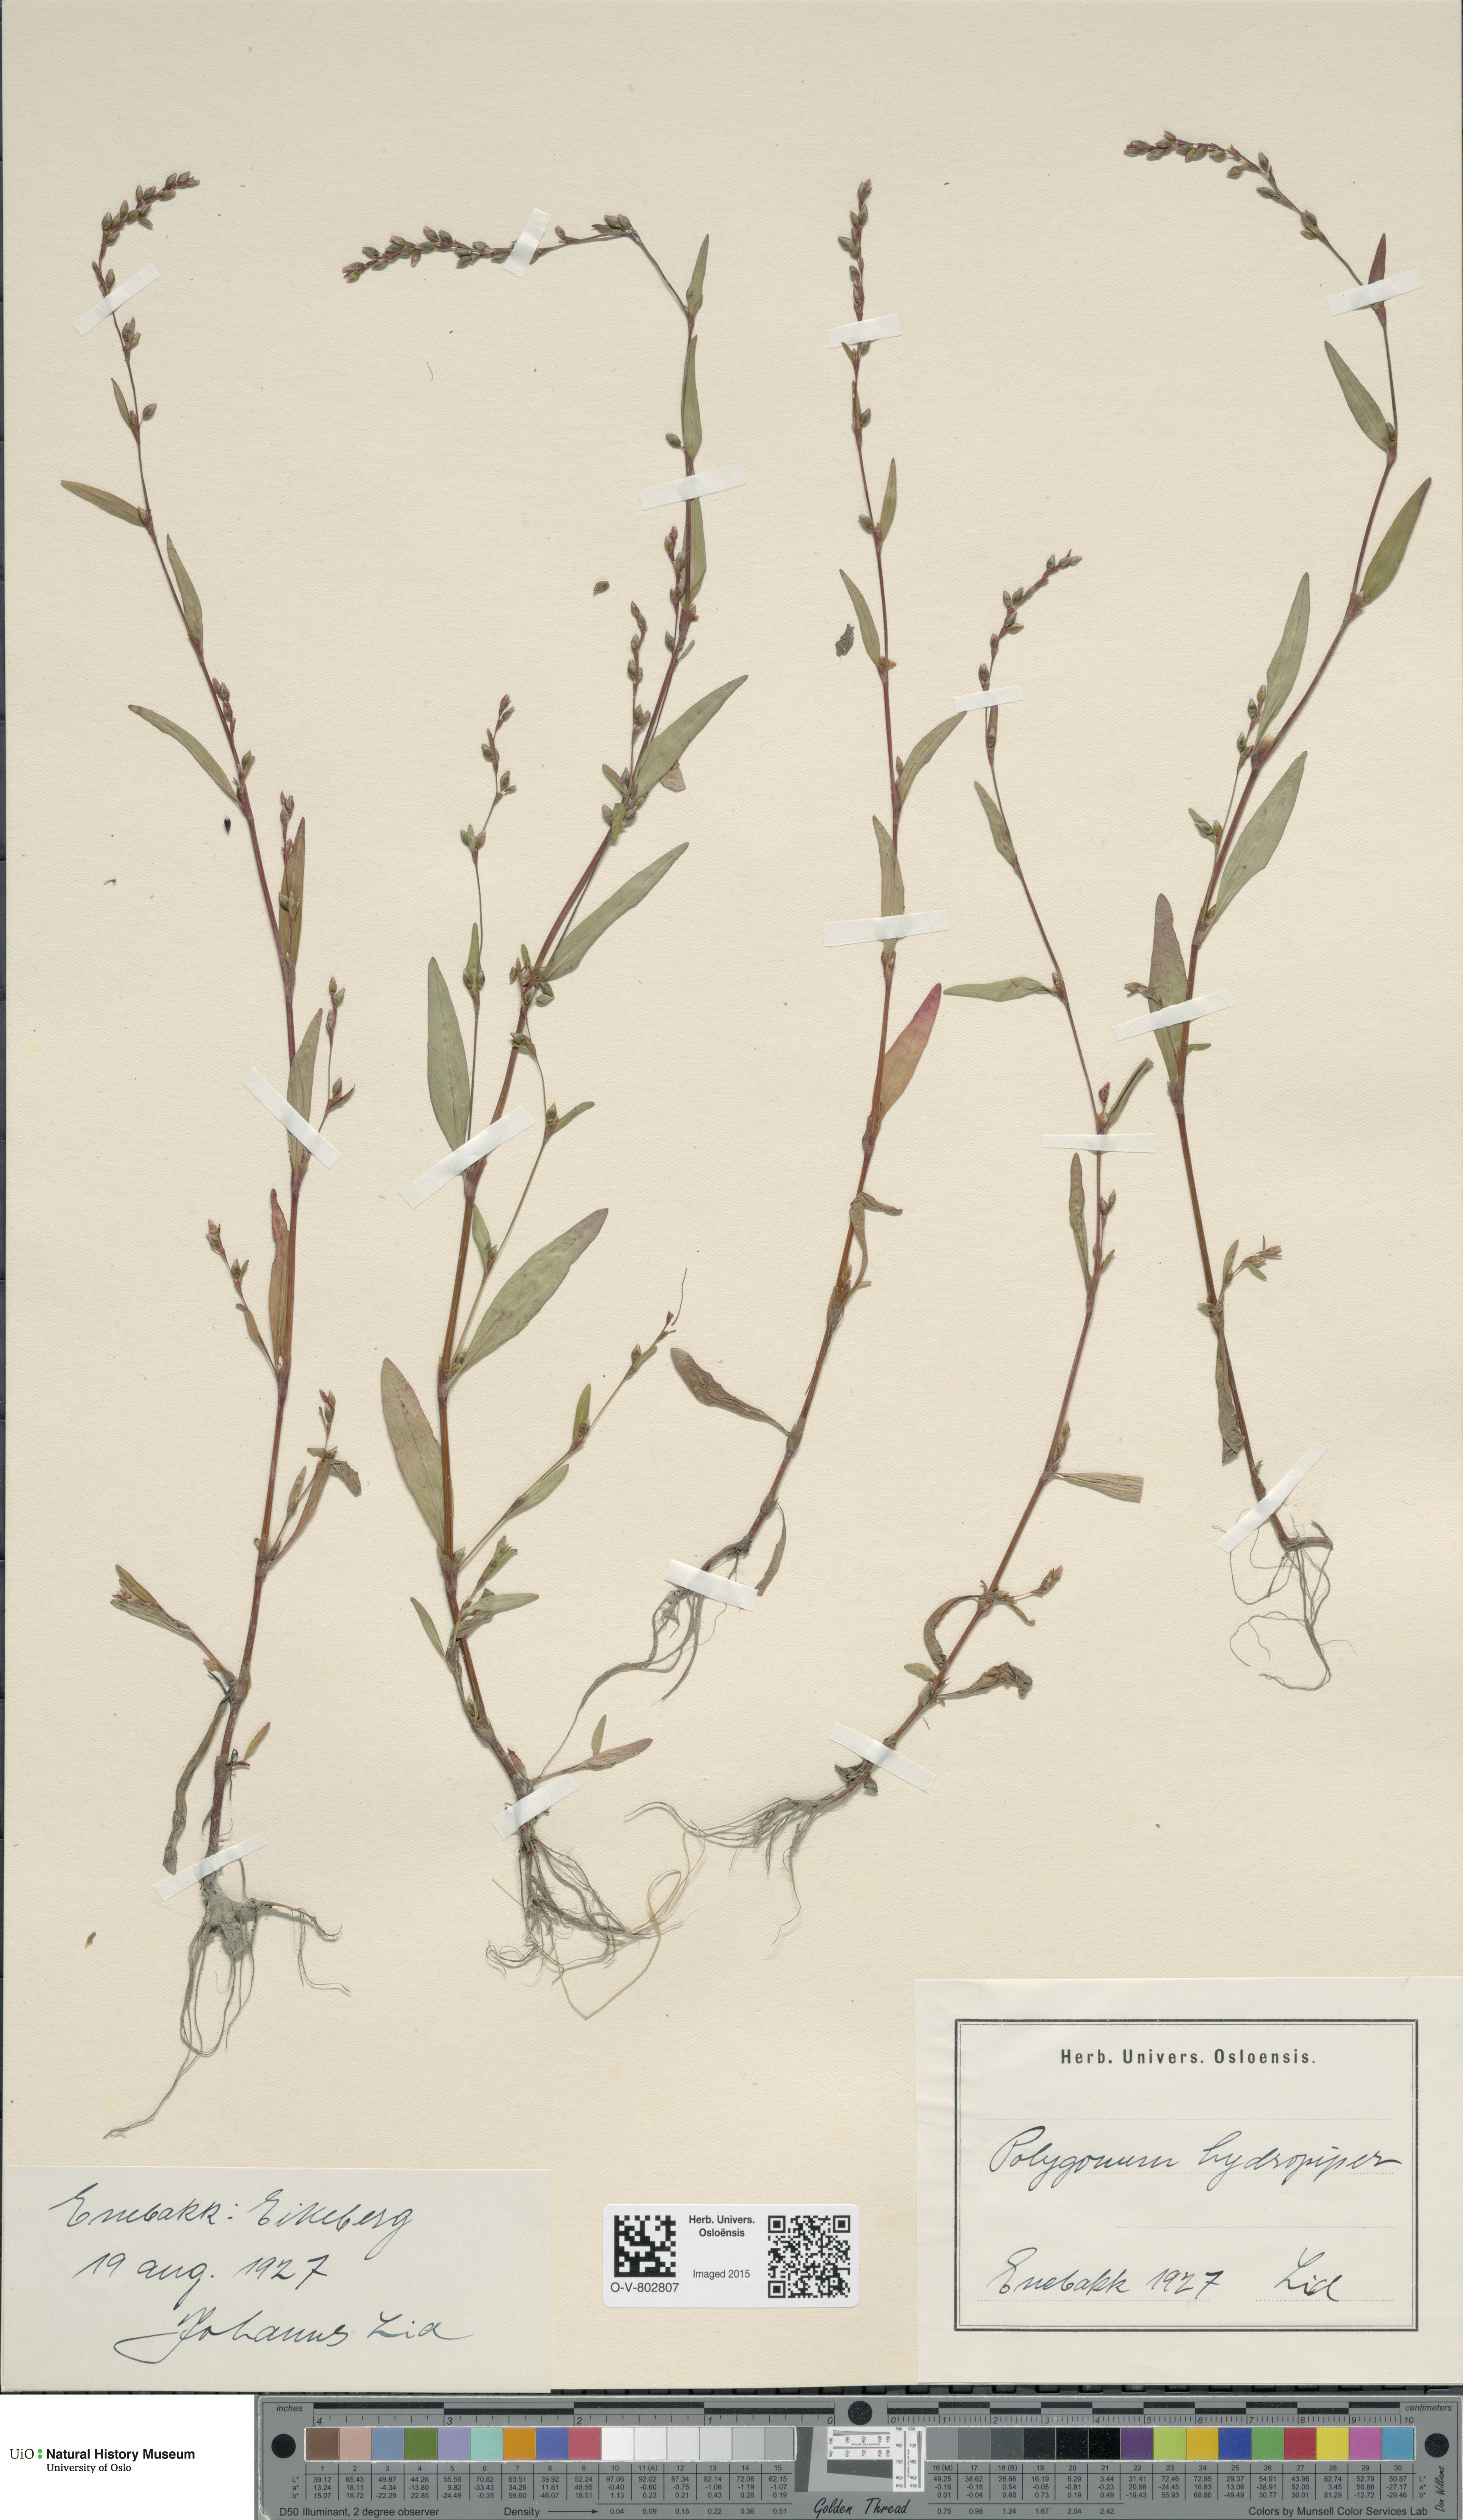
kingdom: Plantae
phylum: Tracheophyta
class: Magnoliopsida
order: Caryophyllales
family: Polygonaceae
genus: Persicaria
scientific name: Persicaria hydropiper
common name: Water-pepper
